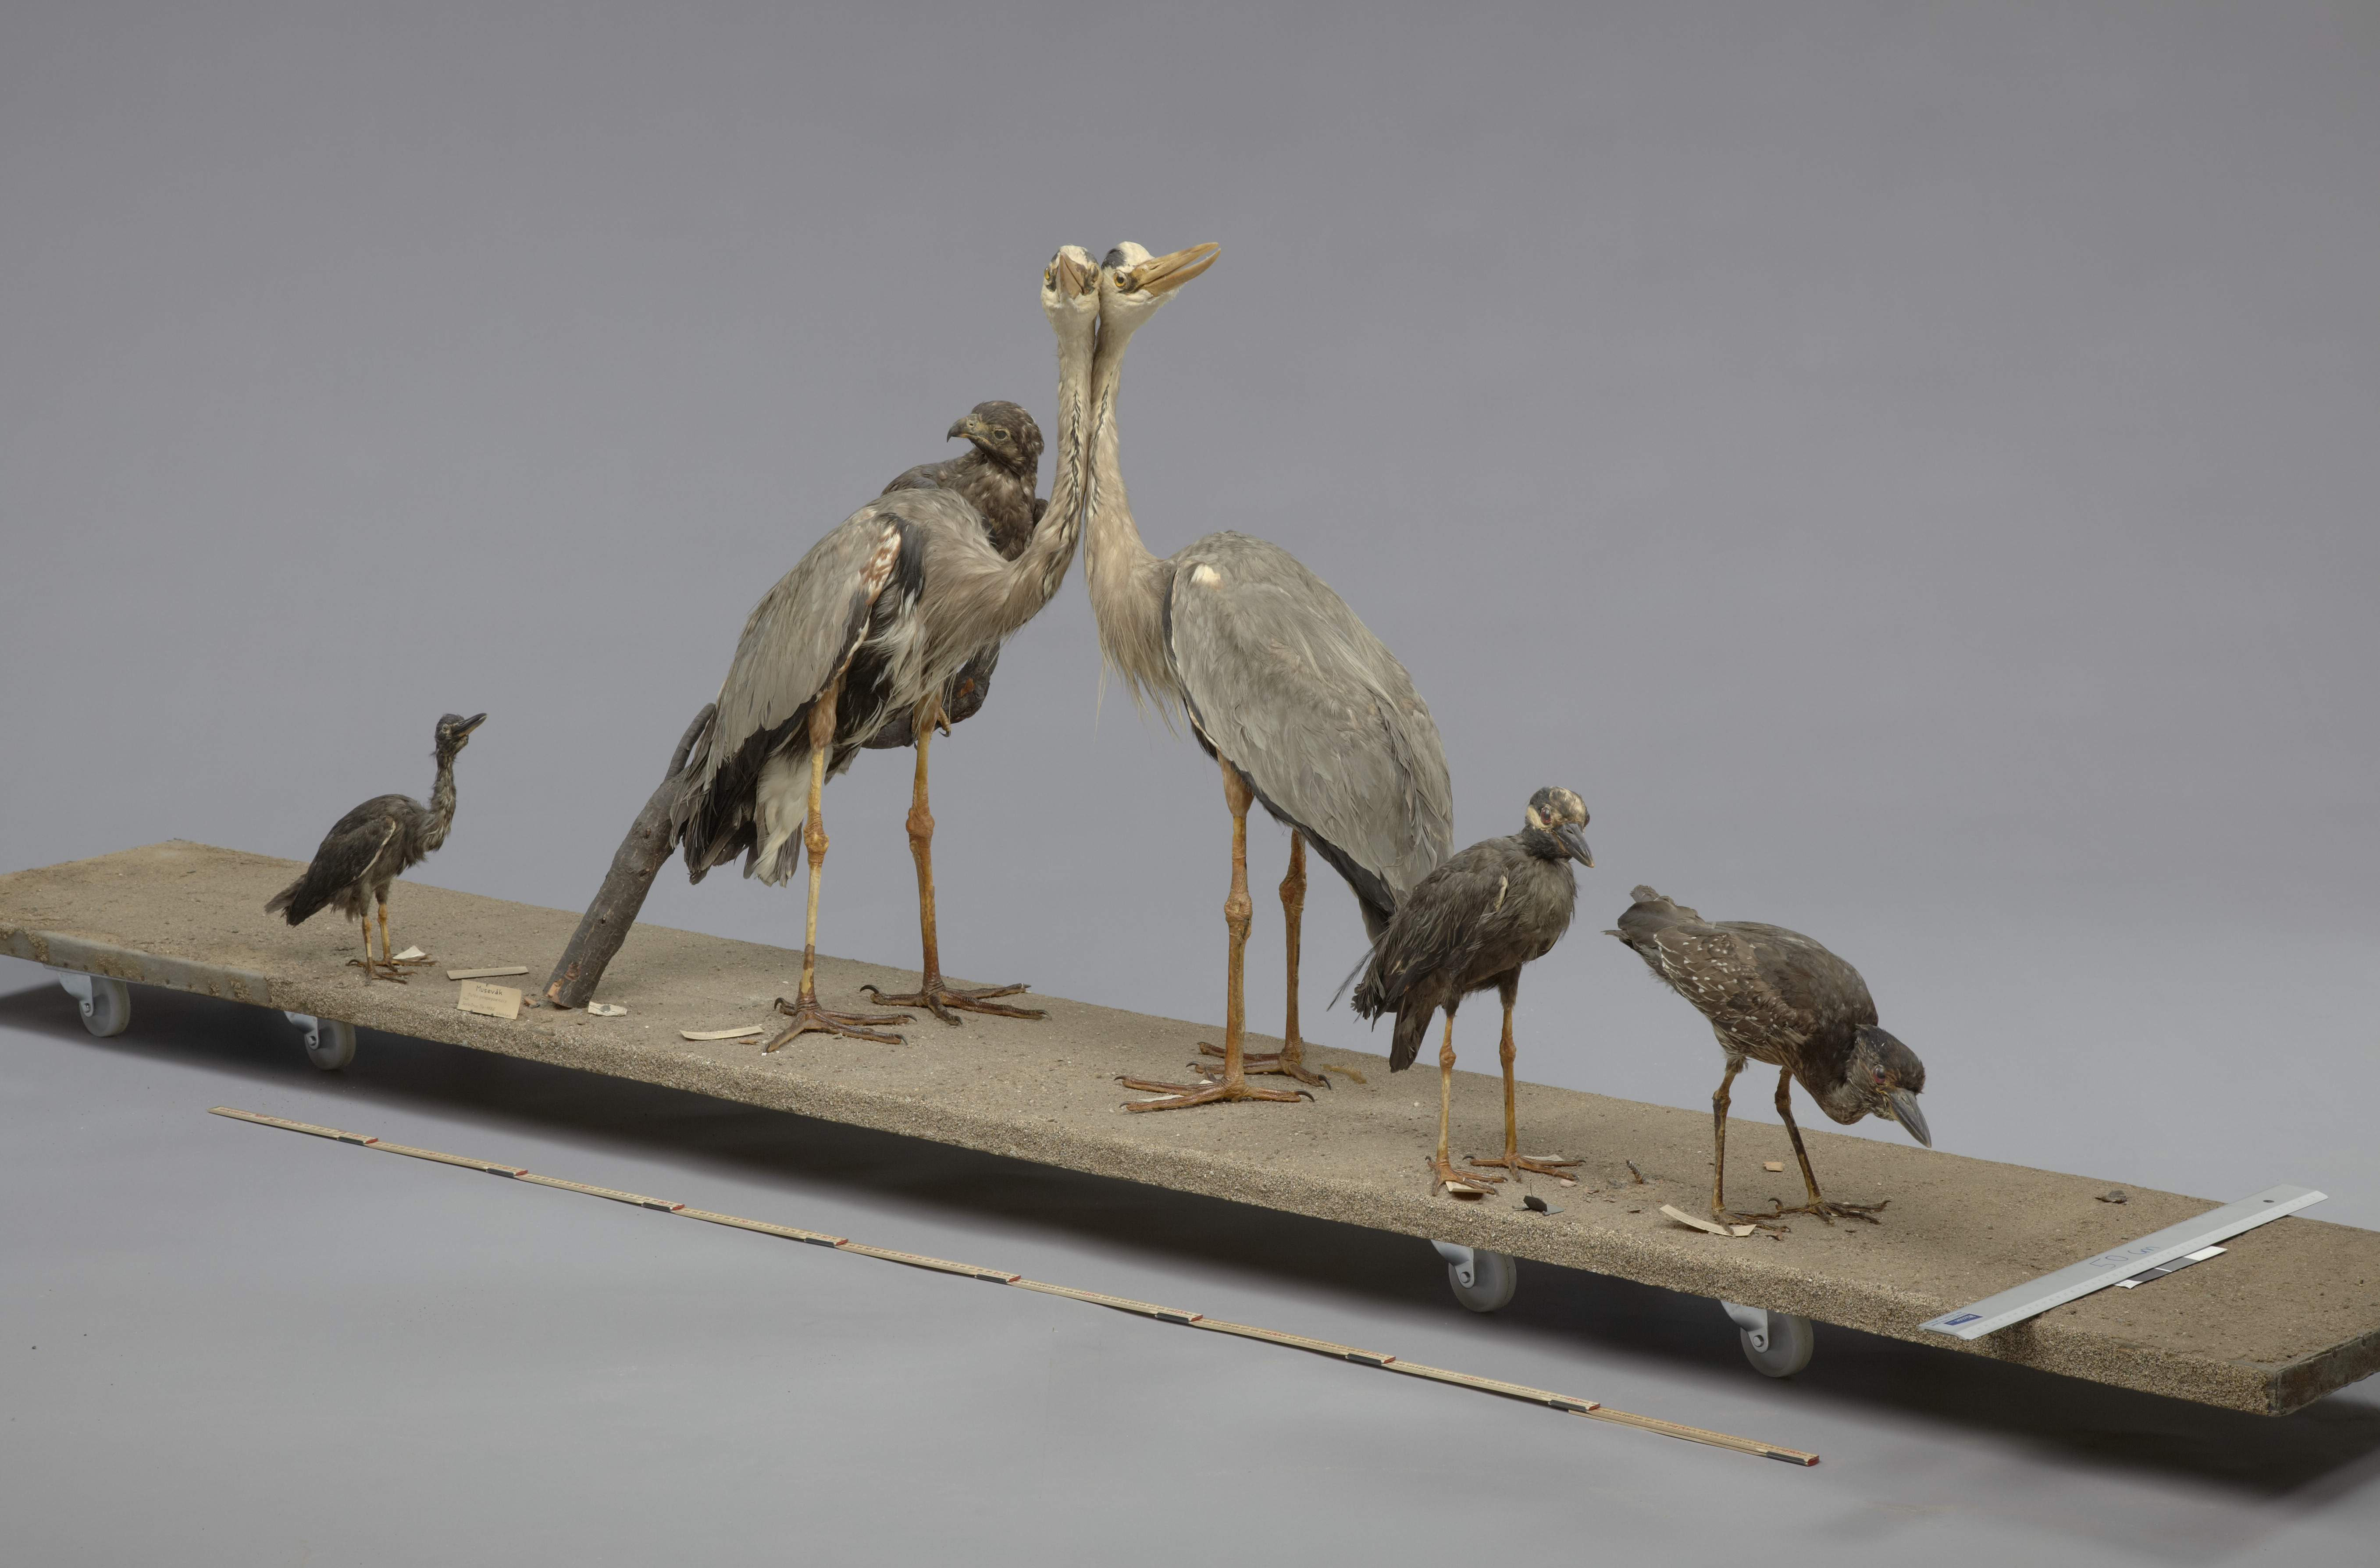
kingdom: Animalia
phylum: Chordata
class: Aves
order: Pelecaniformes
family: Ardeidae
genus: Nyctanassa
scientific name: Nyctanassa violacea
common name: Yellow-crowned night heron
